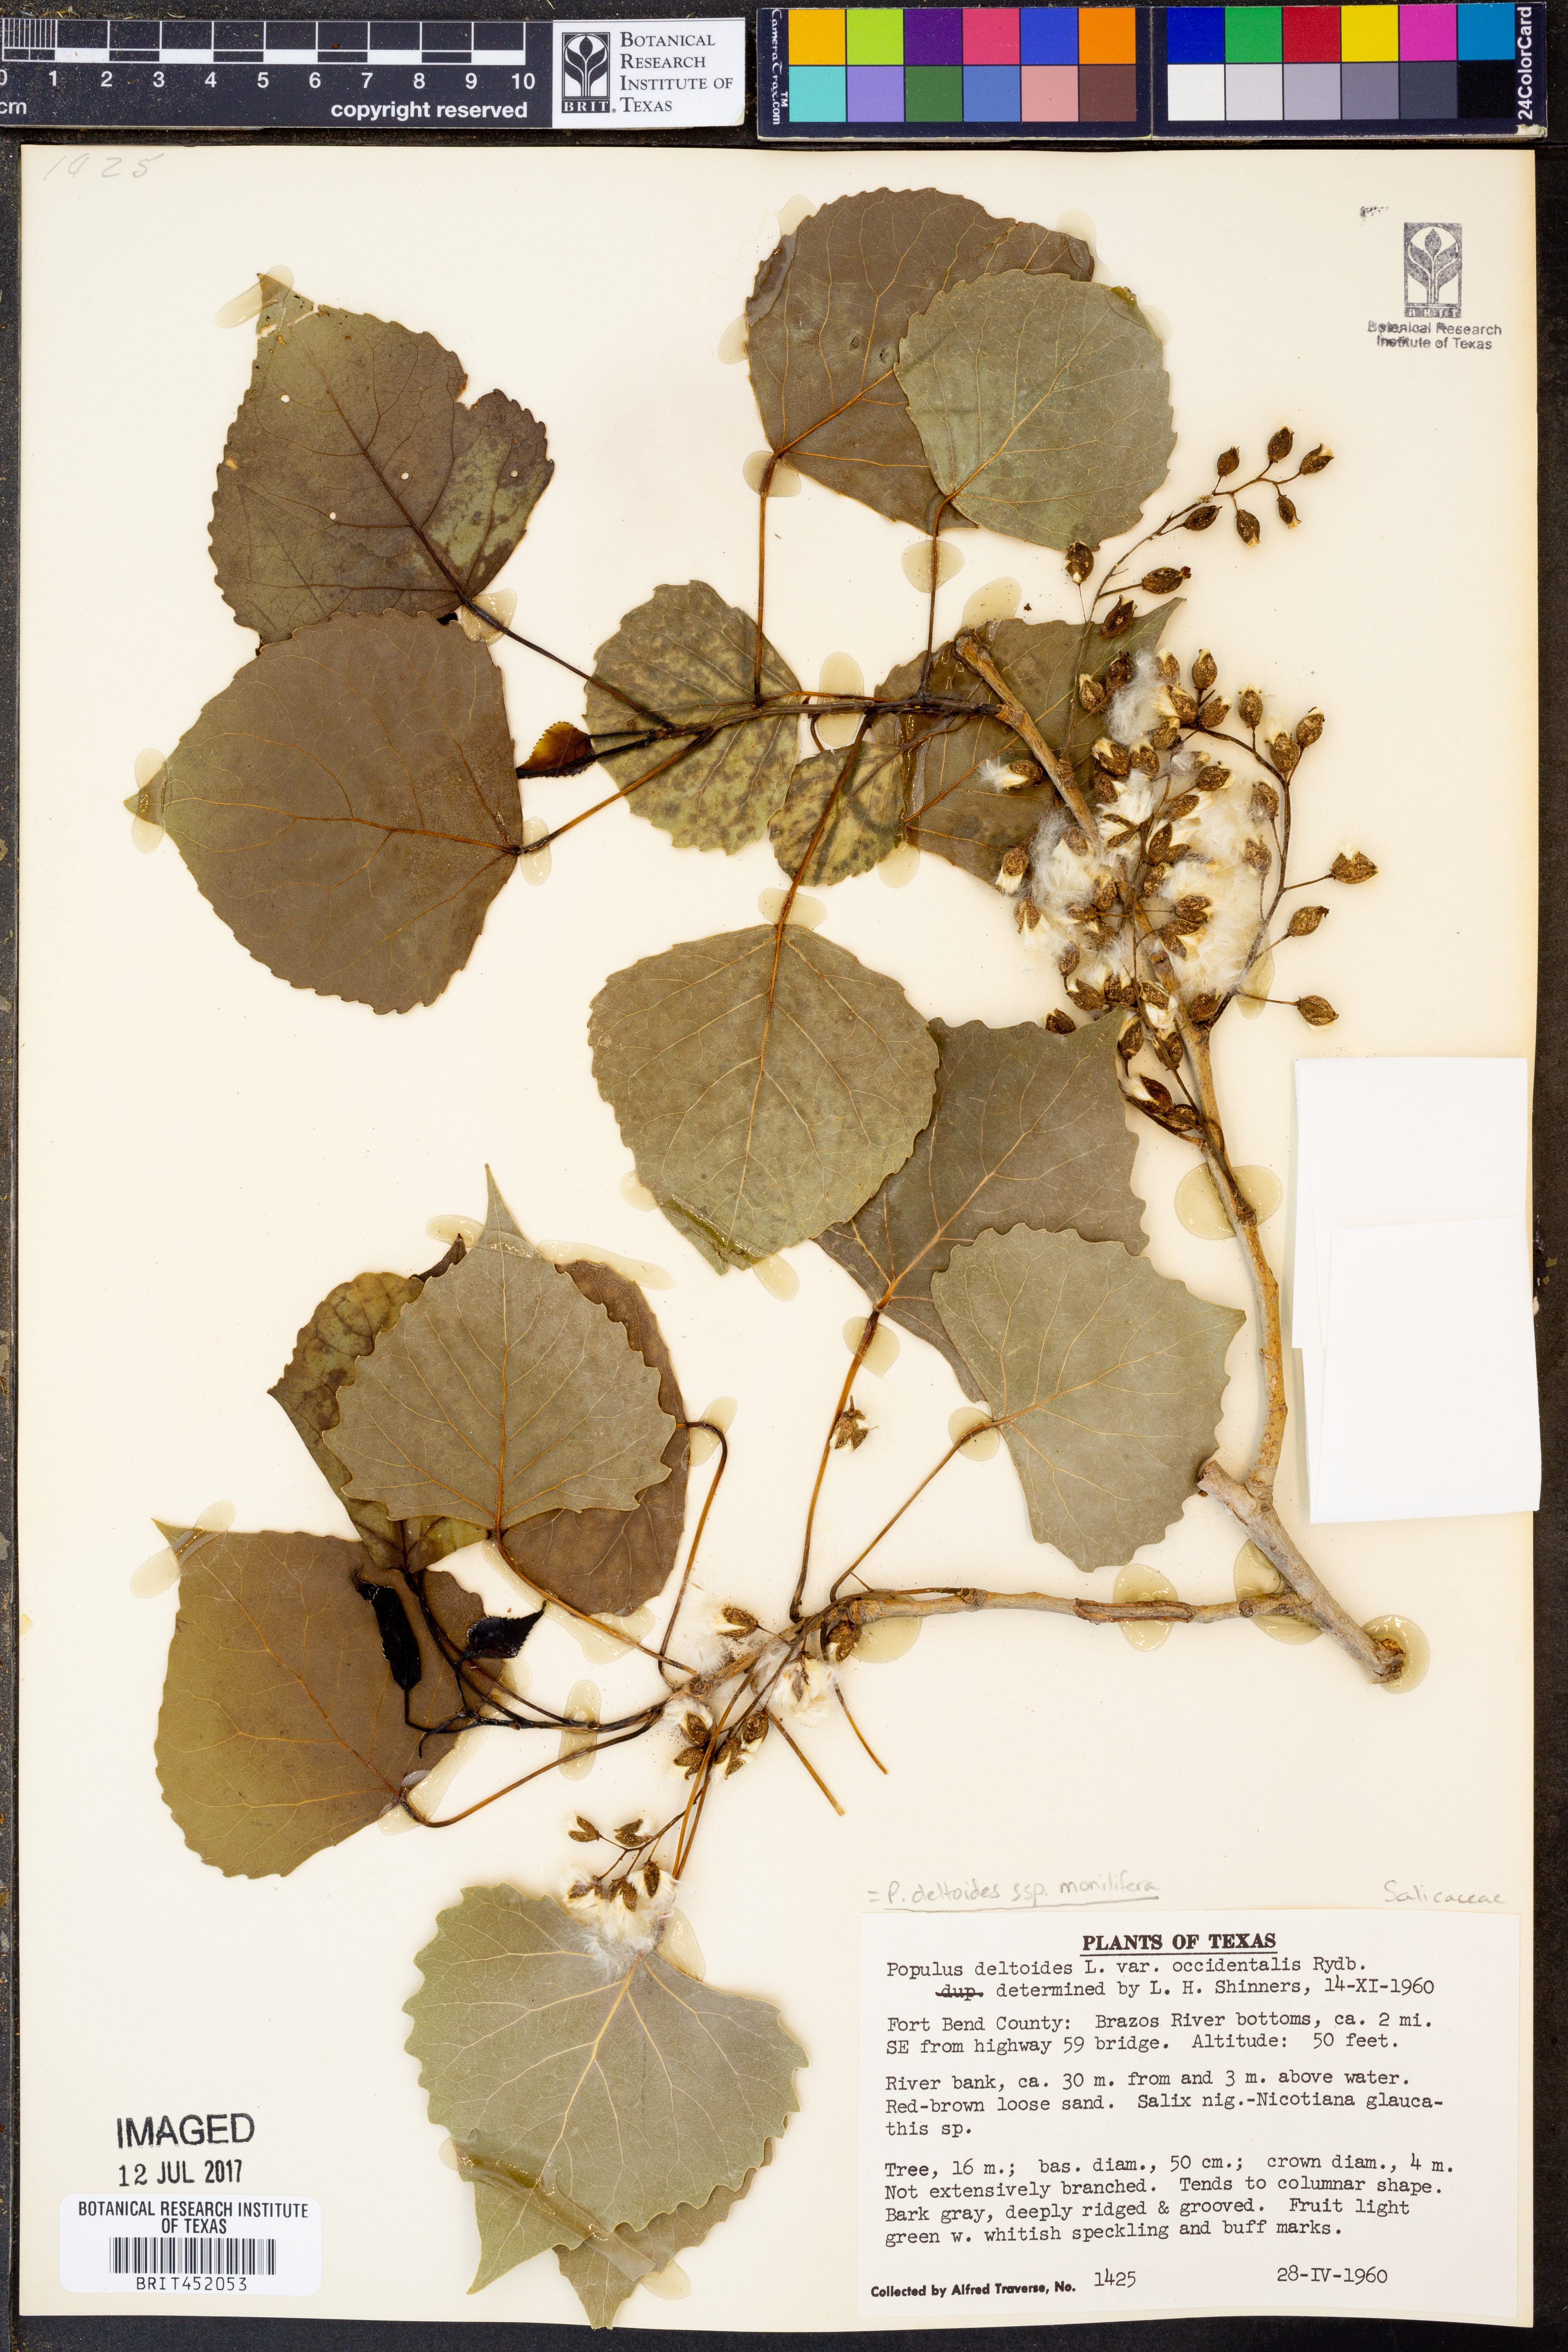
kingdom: Plantae
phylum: Tracheophyta
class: Magnoliopsida
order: Malpighiales
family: Salicaceae
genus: Populus
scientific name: Populus deltoides
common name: Eastern cottonwood
